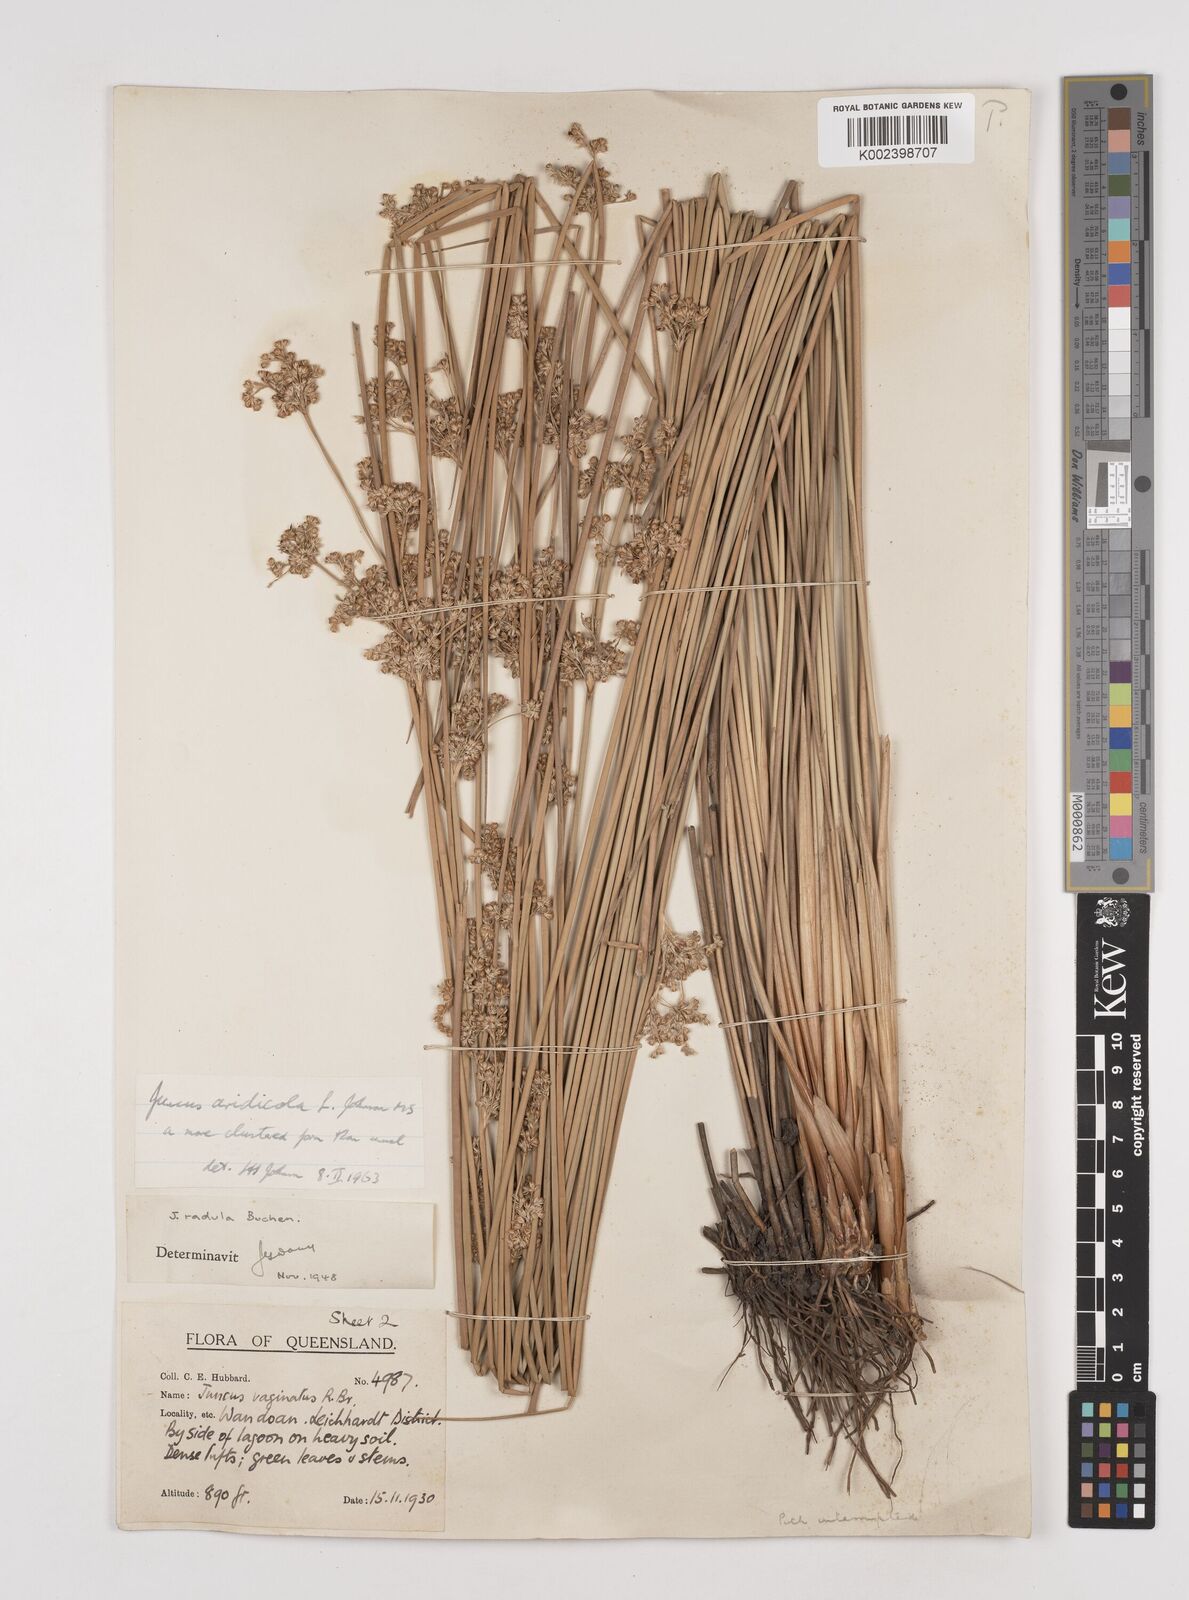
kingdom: Plantae
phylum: Tracheophyta
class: Liliopsida
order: Poales
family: Juncaceae
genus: Juncus
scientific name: Juncus aridicola
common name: Tussock rush
